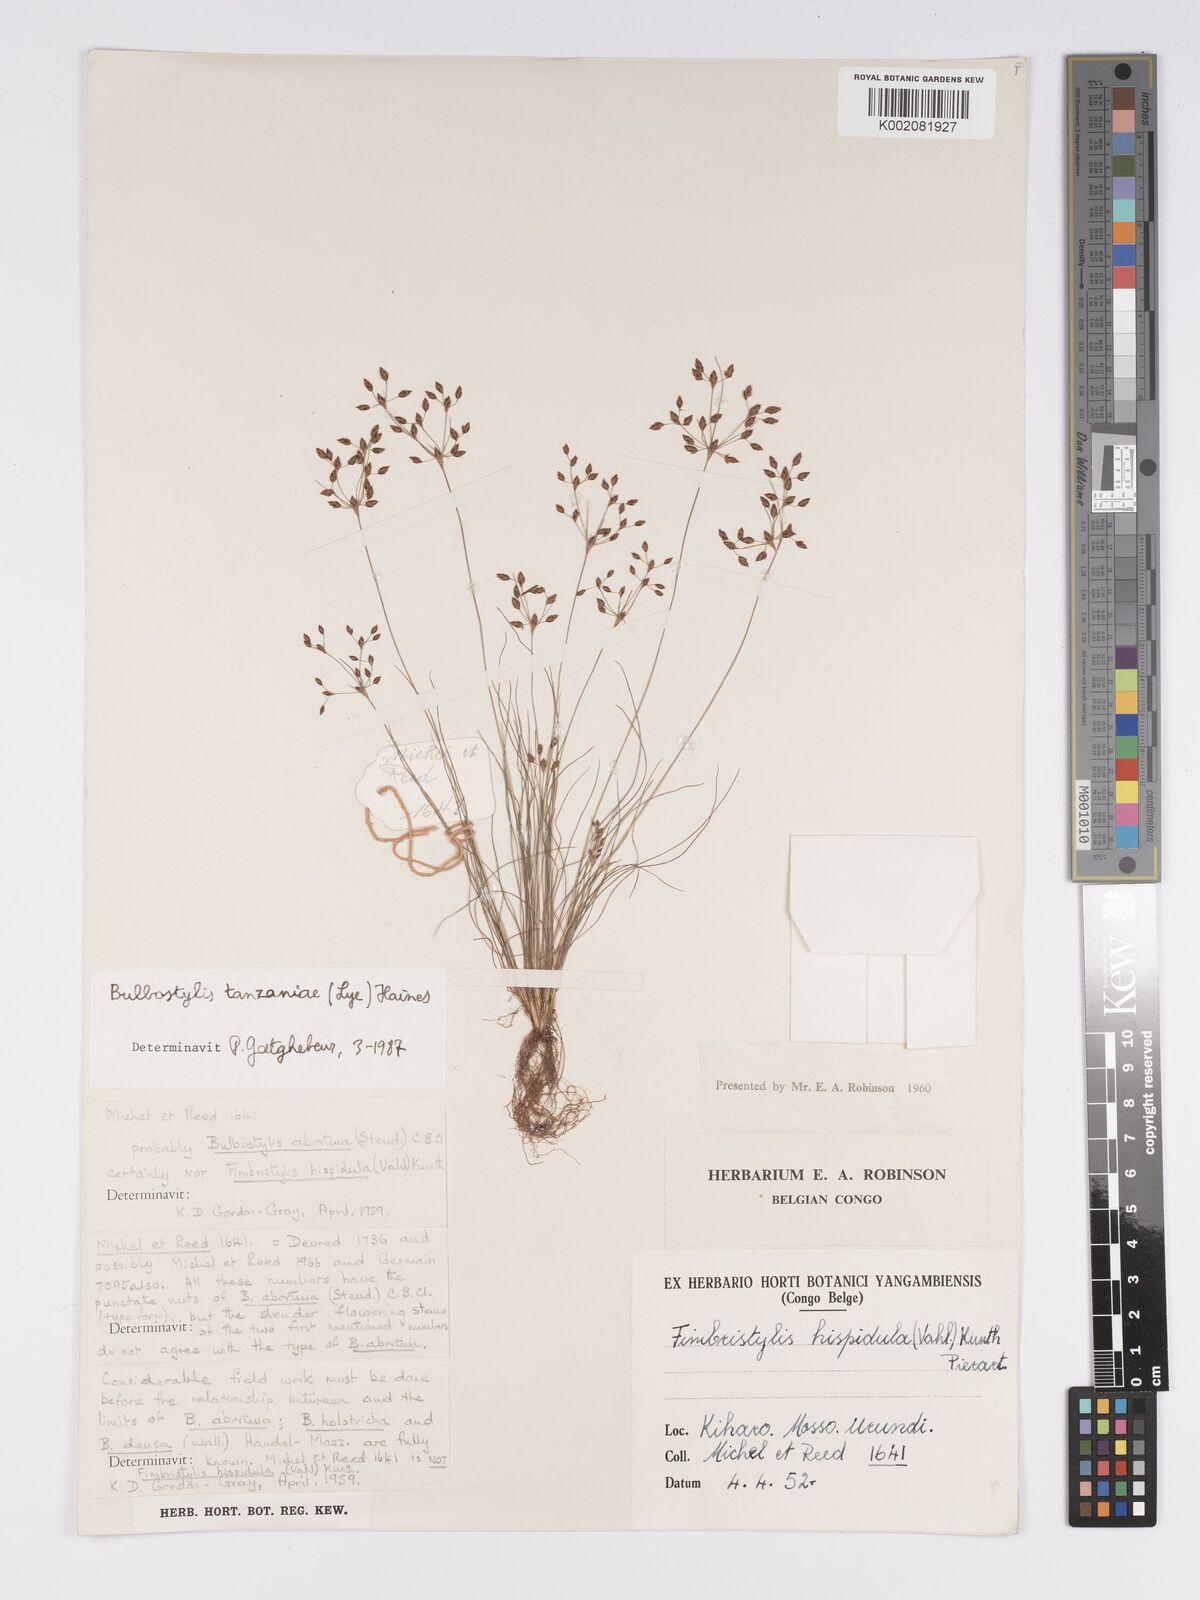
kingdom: Plantae
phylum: Tracheophyta
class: Liliopsida
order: Poales
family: Cyperaceae
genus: Bulbostylis
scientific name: Bulbostylis tanzaniae
